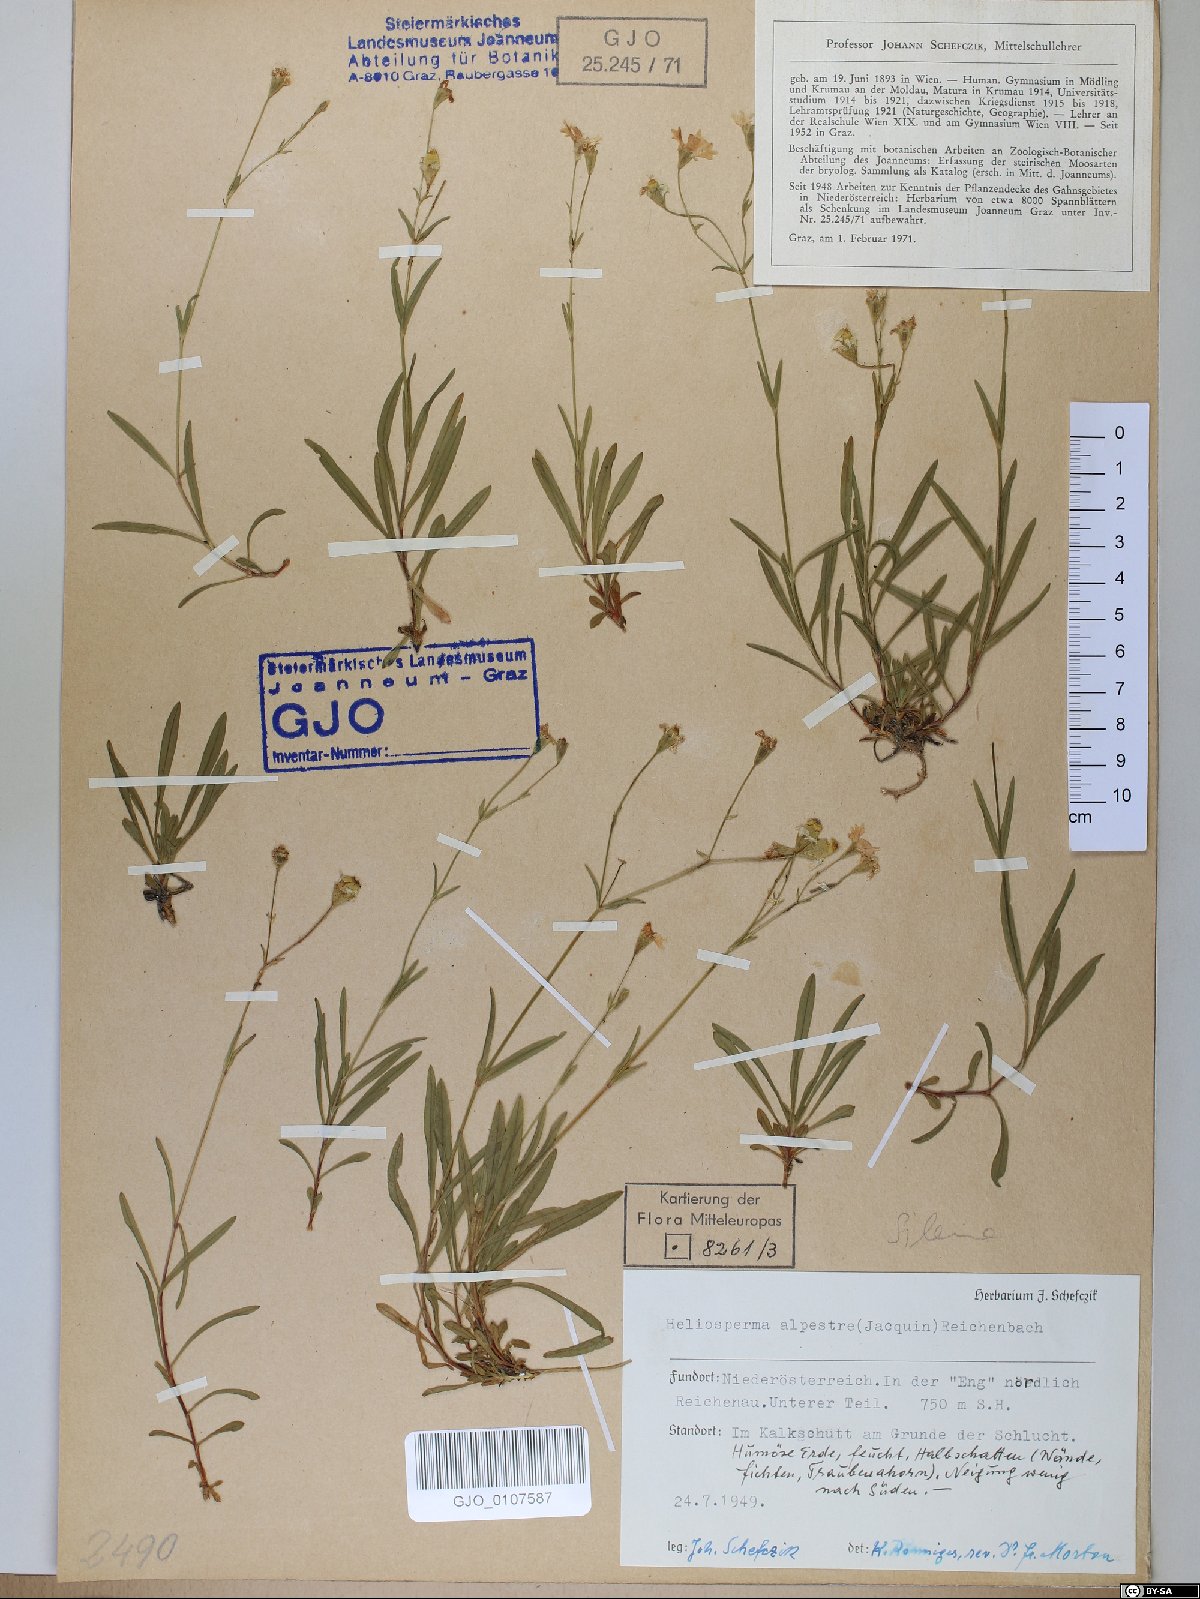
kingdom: Plantae
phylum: Tracheophyta
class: Magnoliopsida
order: Caryophyllales
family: Caryophyllaceae
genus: Heliosperma
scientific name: Heliosperma alpestre
